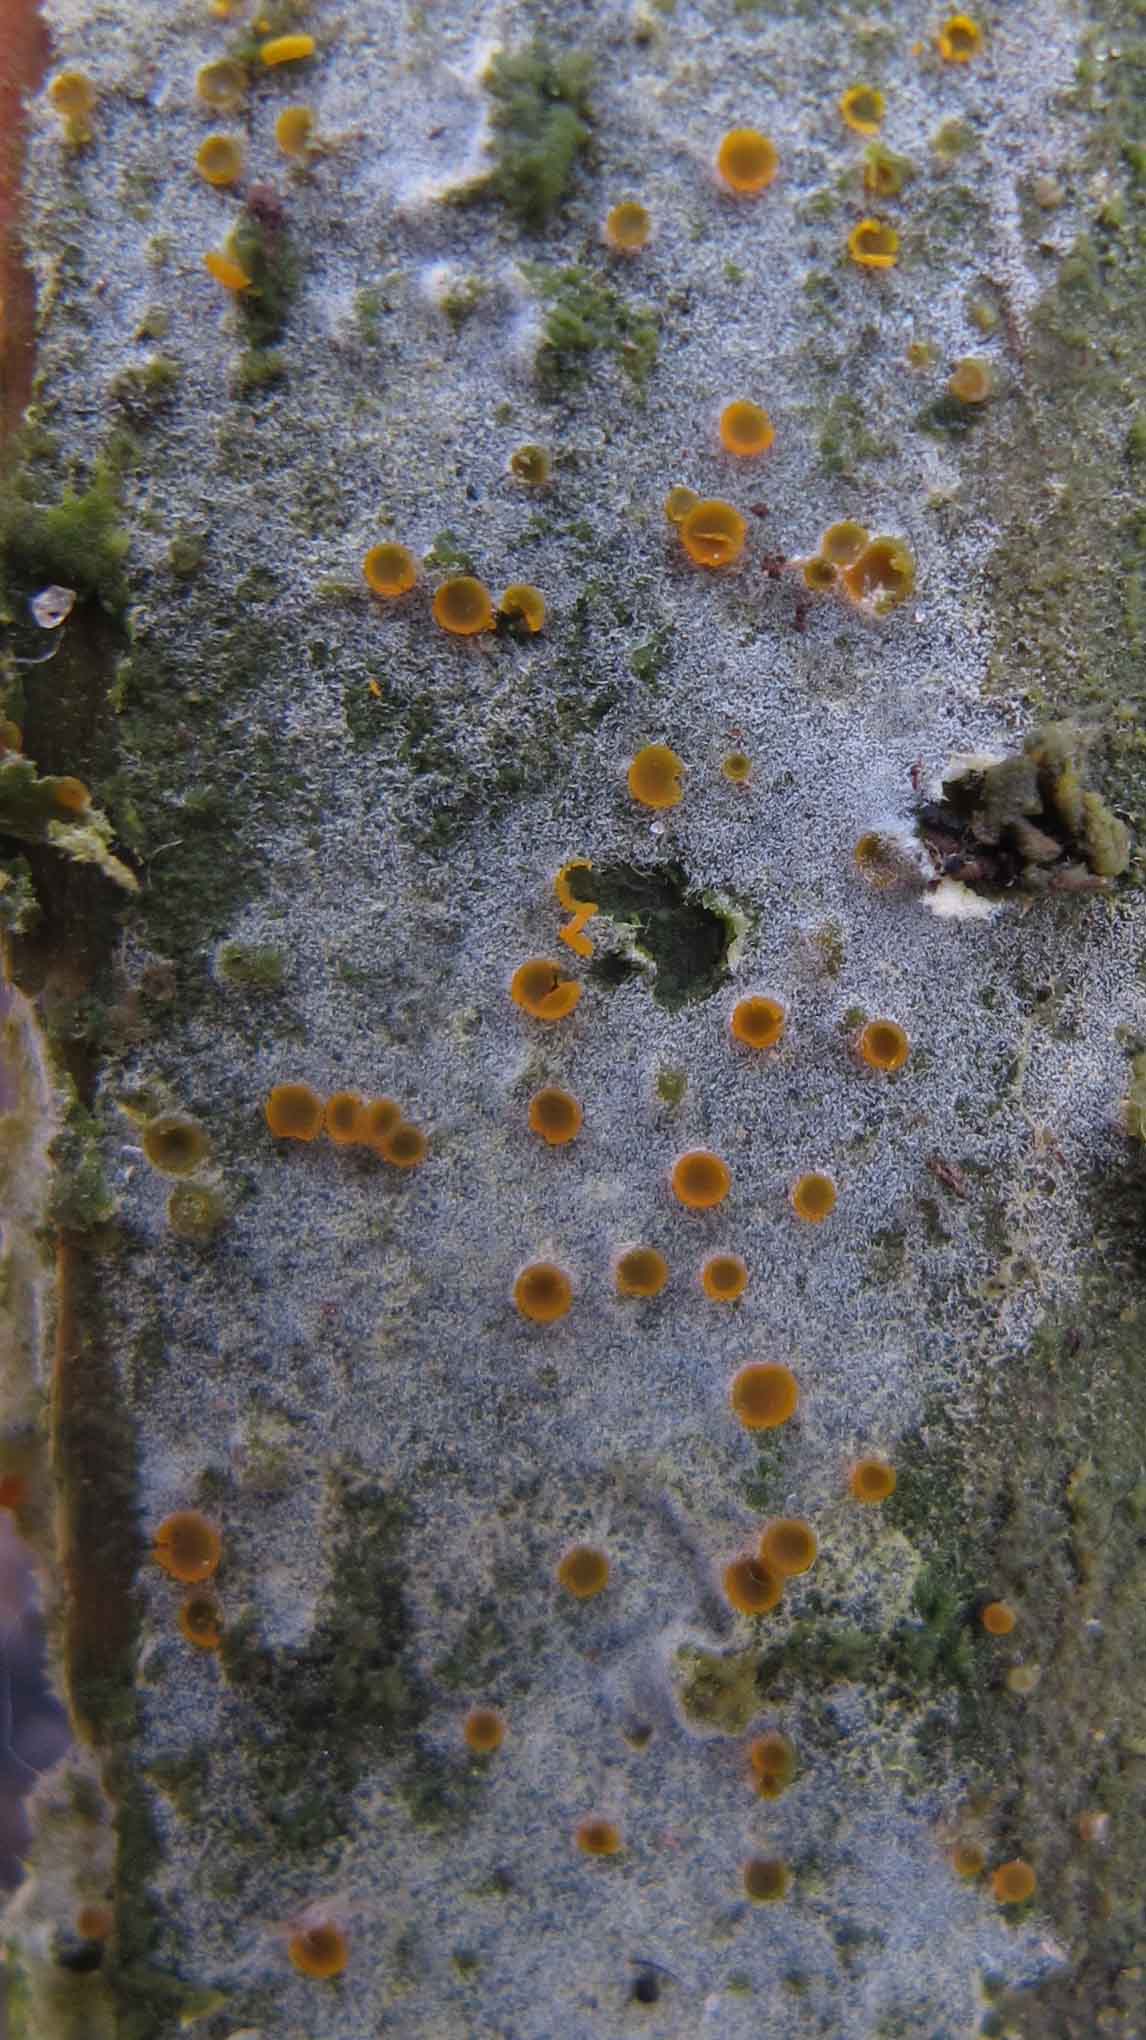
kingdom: Fungi
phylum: Basidiomycota
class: Agaricomycetes
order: Cantharellales
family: Botryobasidiaceae
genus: Botryobasidium
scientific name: Botryobasidium vagum
